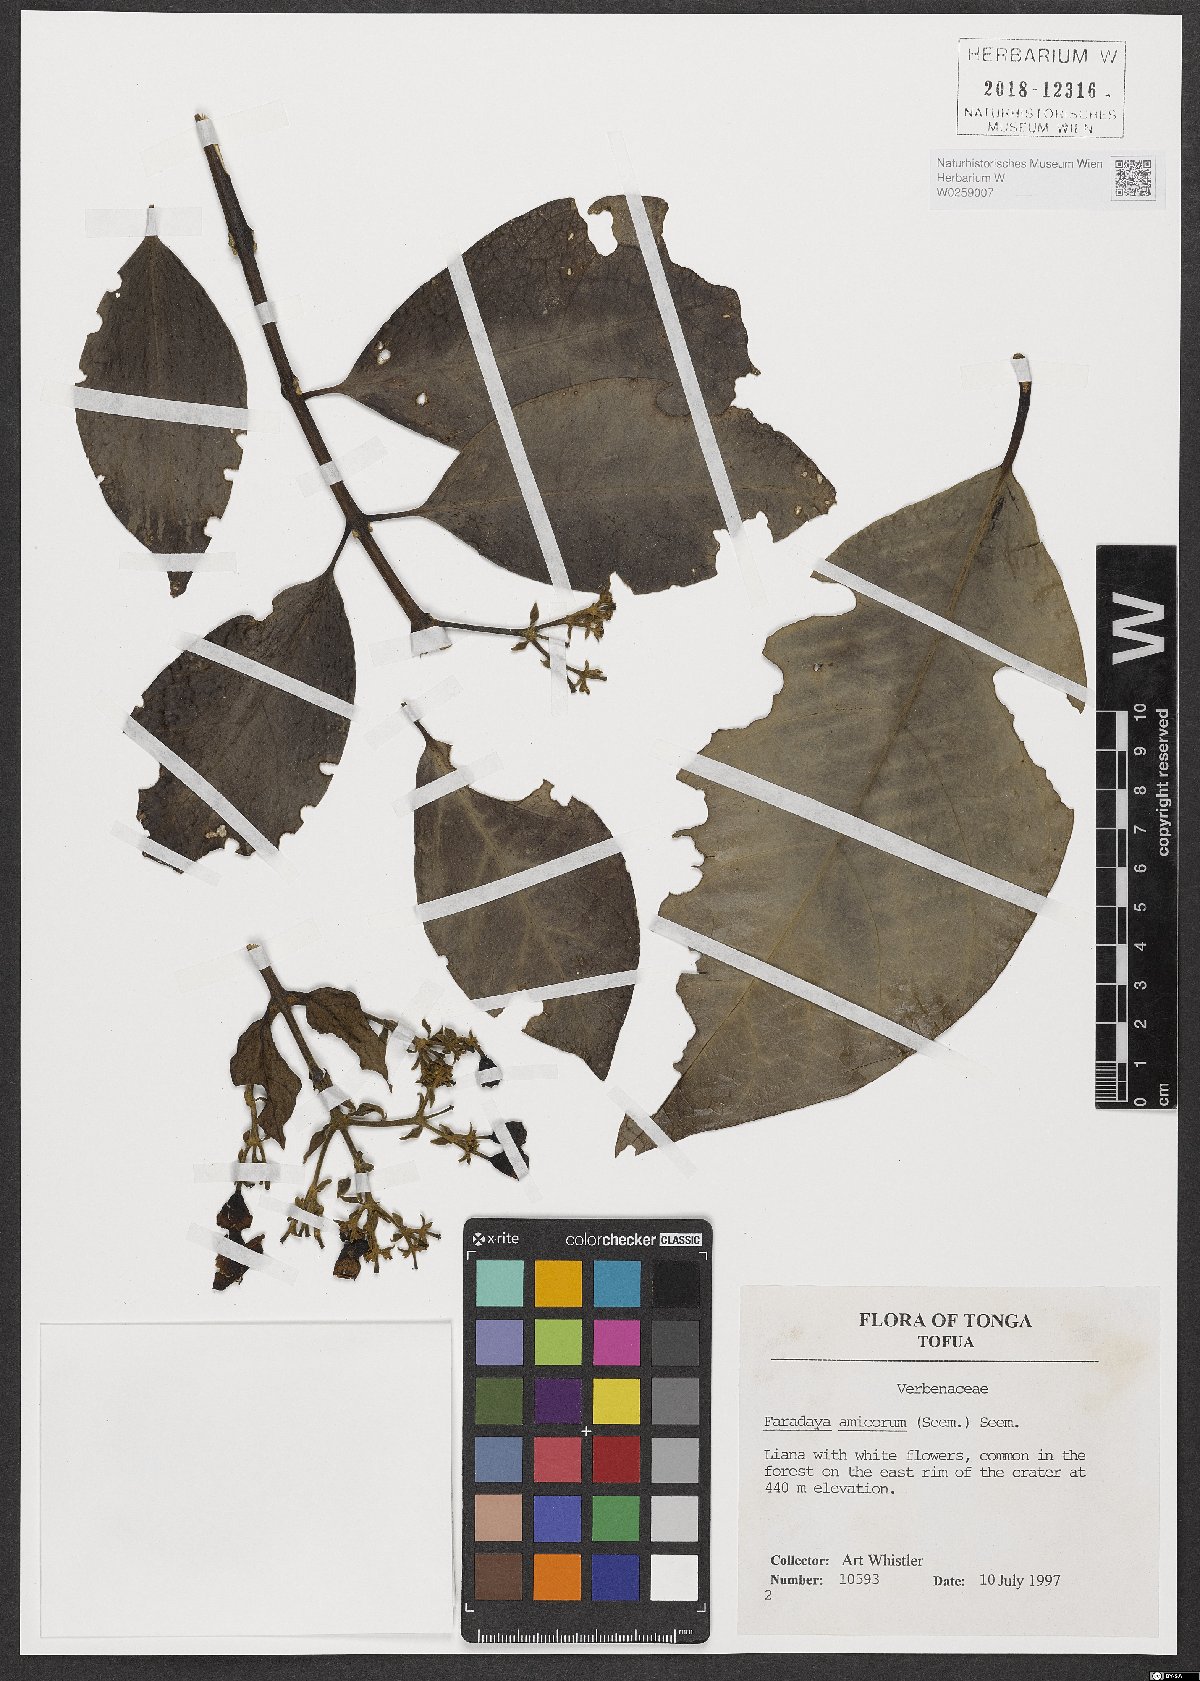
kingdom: Plantae
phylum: Tracheophyta
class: Magnoliopsida
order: Lamiales
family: Lamiaceae
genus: Oxera
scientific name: Oxera amicorum
